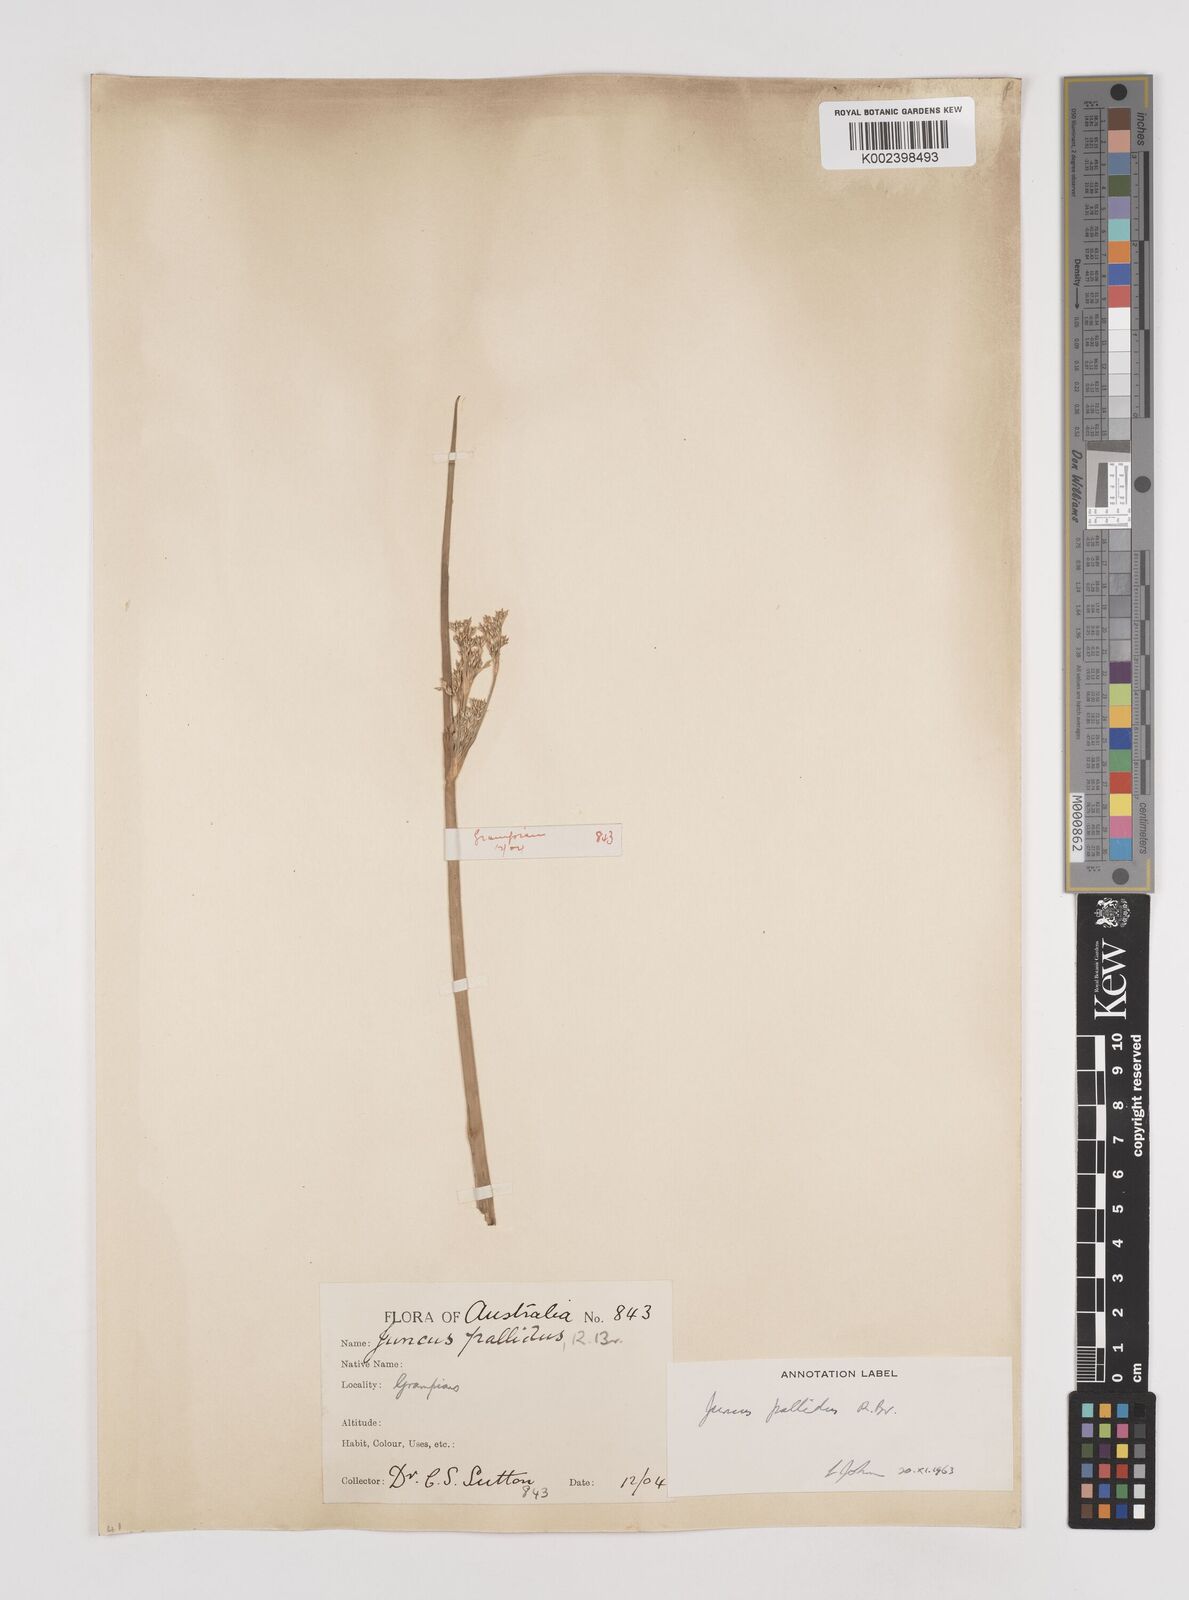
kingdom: Plantae
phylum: Tracheophyta
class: Liliopsida
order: Poales
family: Juncaceae
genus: Juncus
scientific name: Juncus pallidus
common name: Great soft-rush
